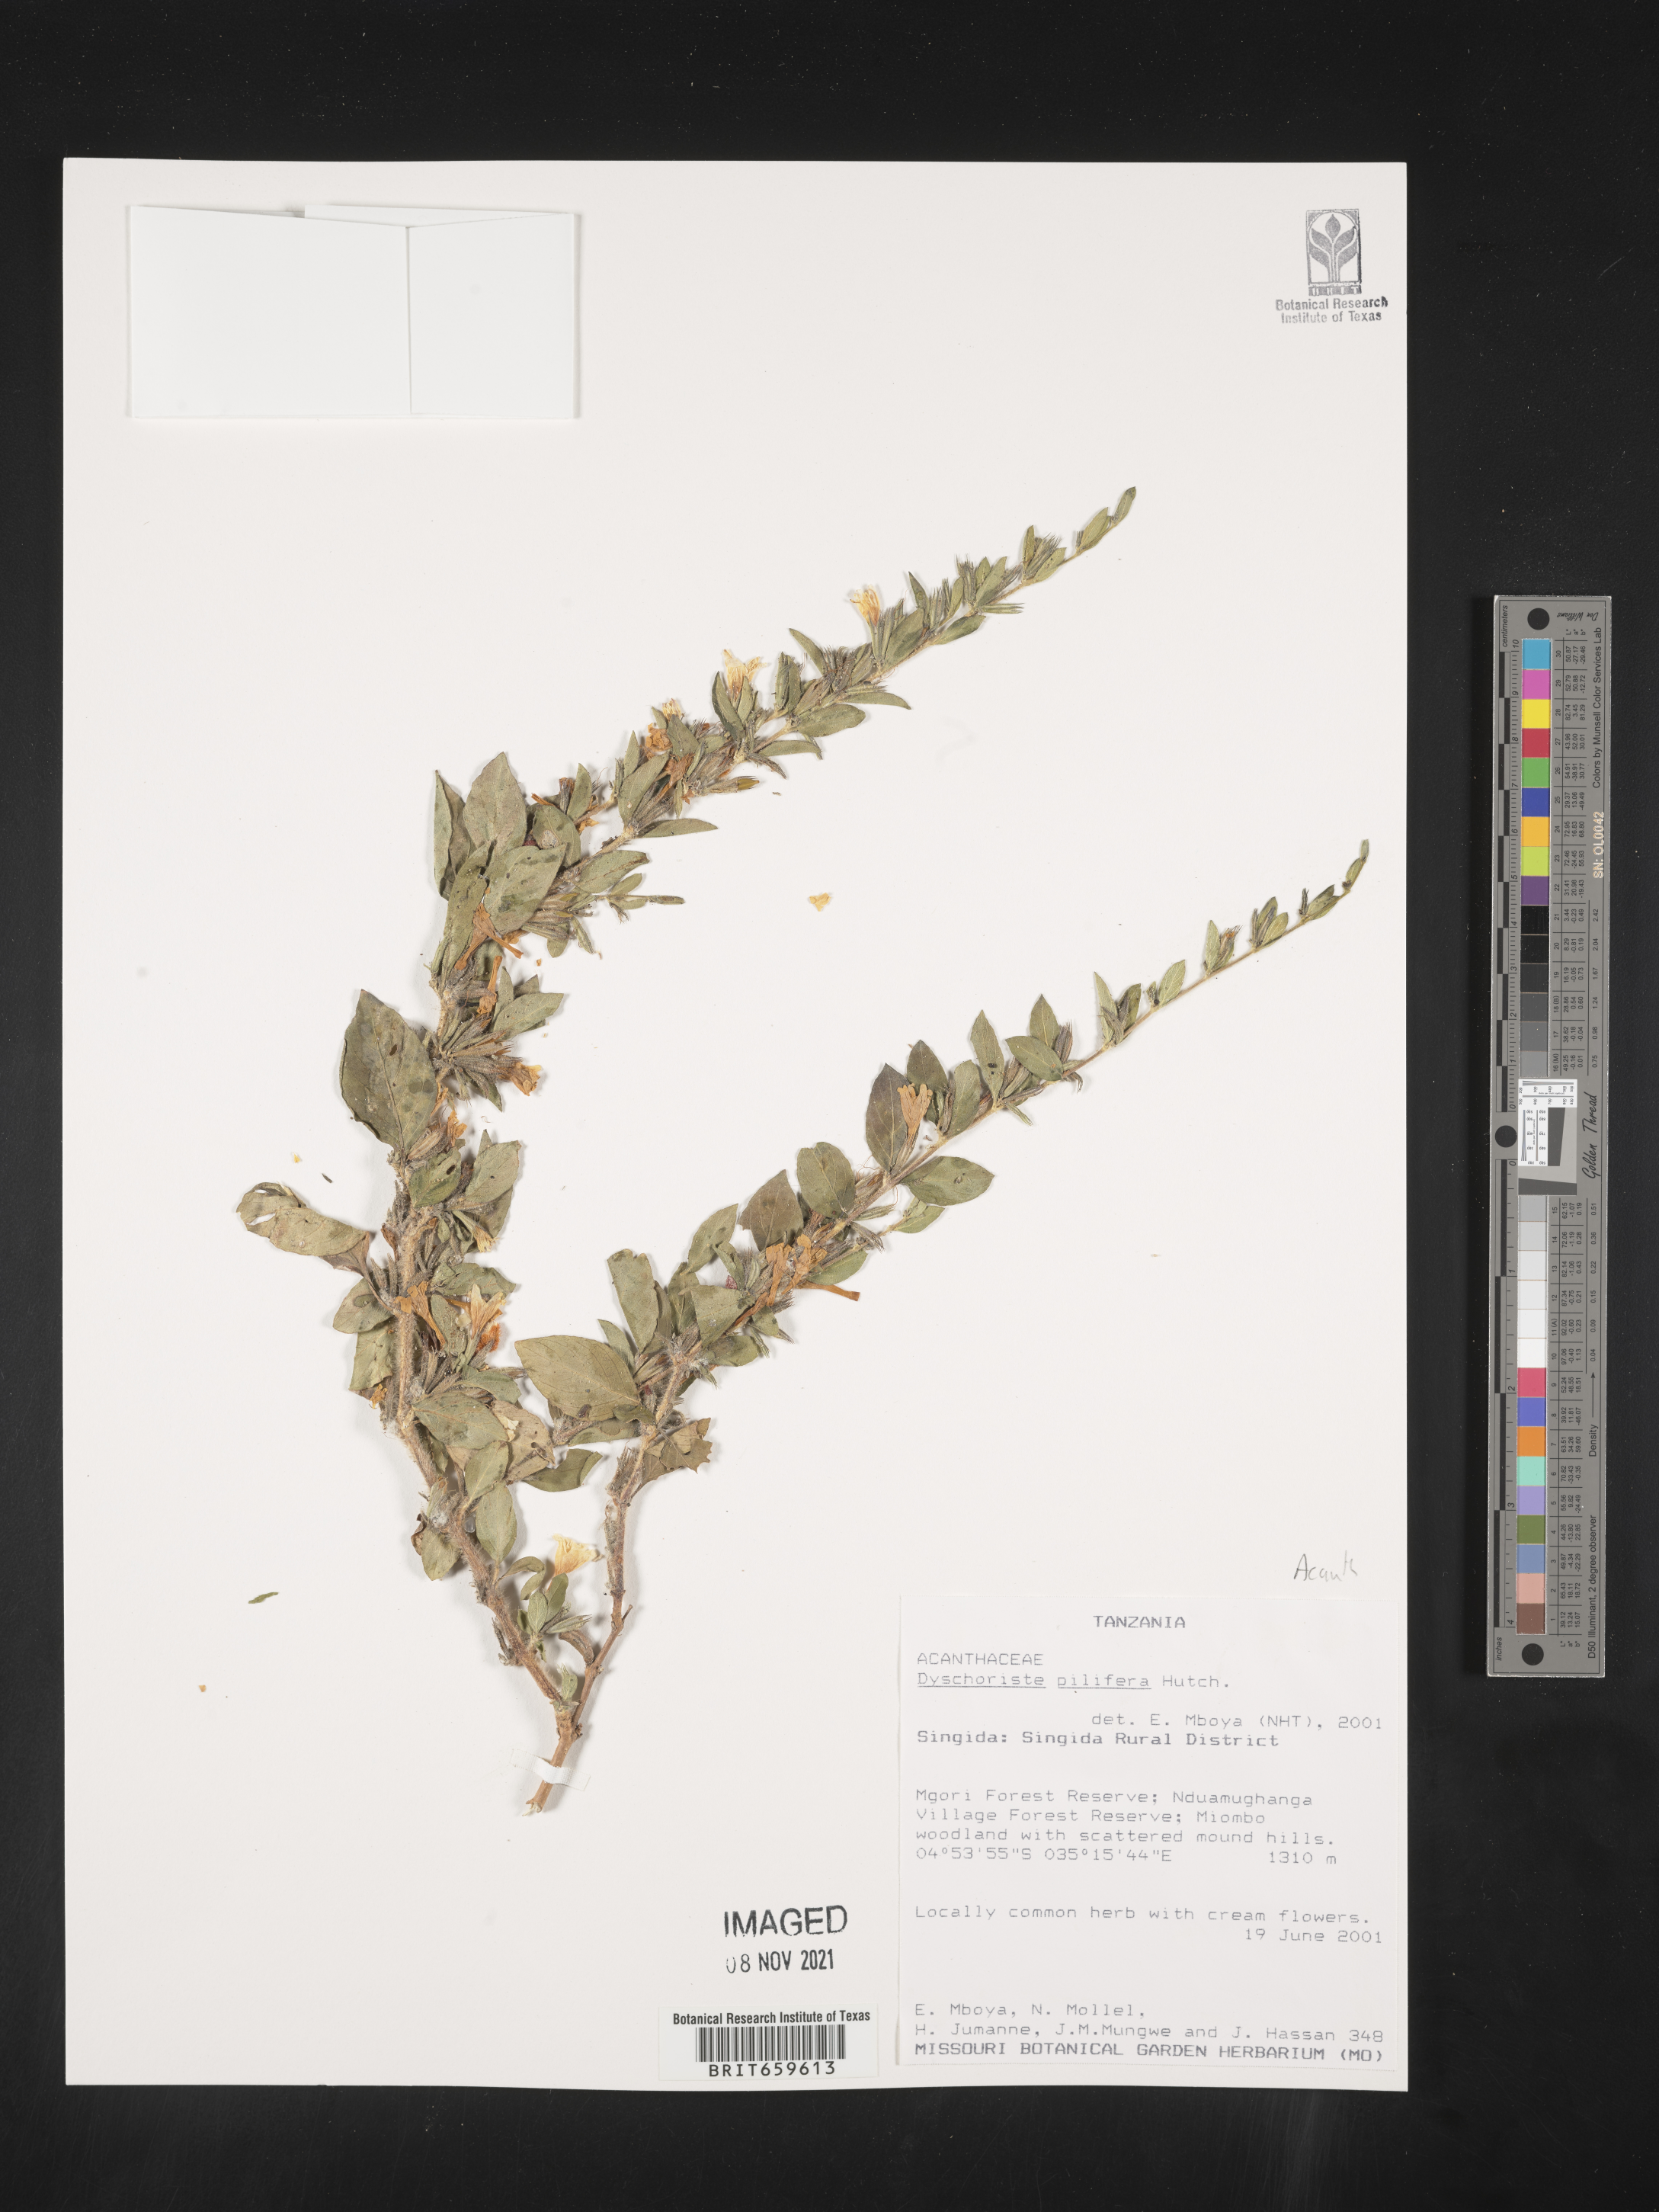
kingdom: Plantae
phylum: Tracheophyta
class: Magnoliopsida
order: Lamiales
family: Acanthaceae
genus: Dyschoriste
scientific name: Dyschoriste pilifera
